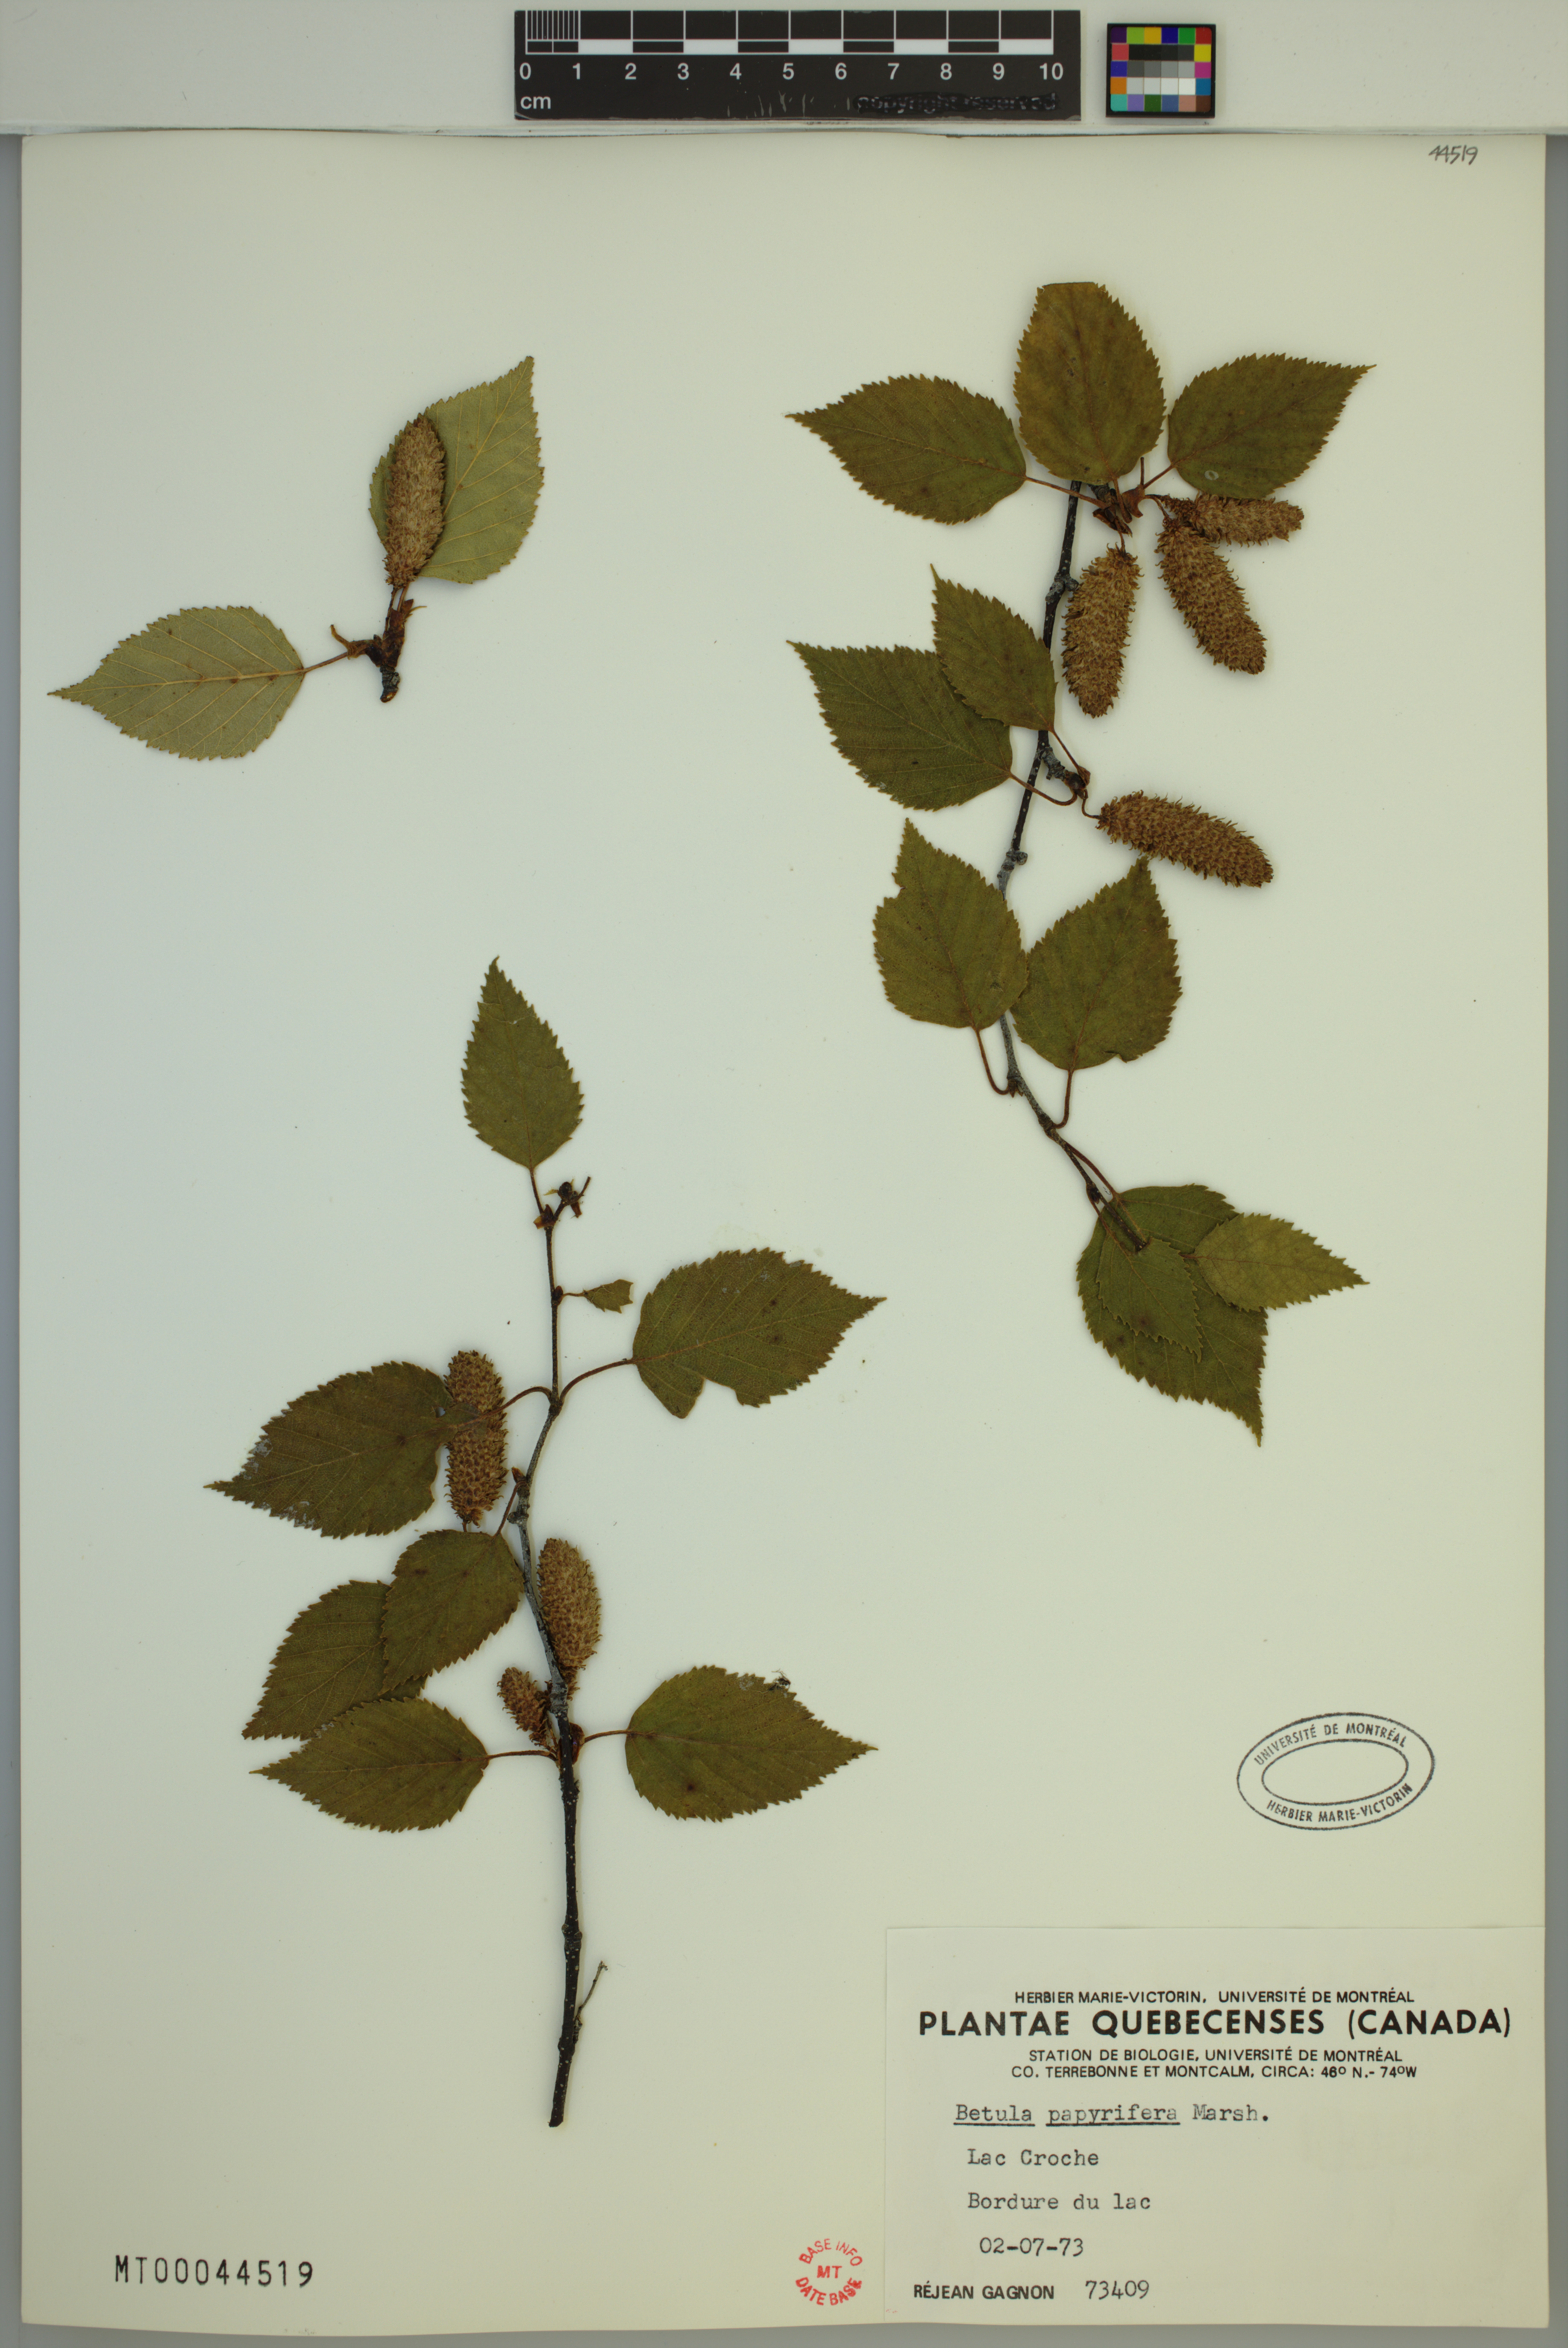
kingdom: Plantae
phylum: Tracheophyta
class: Magnoliopsida
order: Fagales
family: Betulaceae
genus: Betula
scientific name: Betula papyrifera
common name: Paper birch
